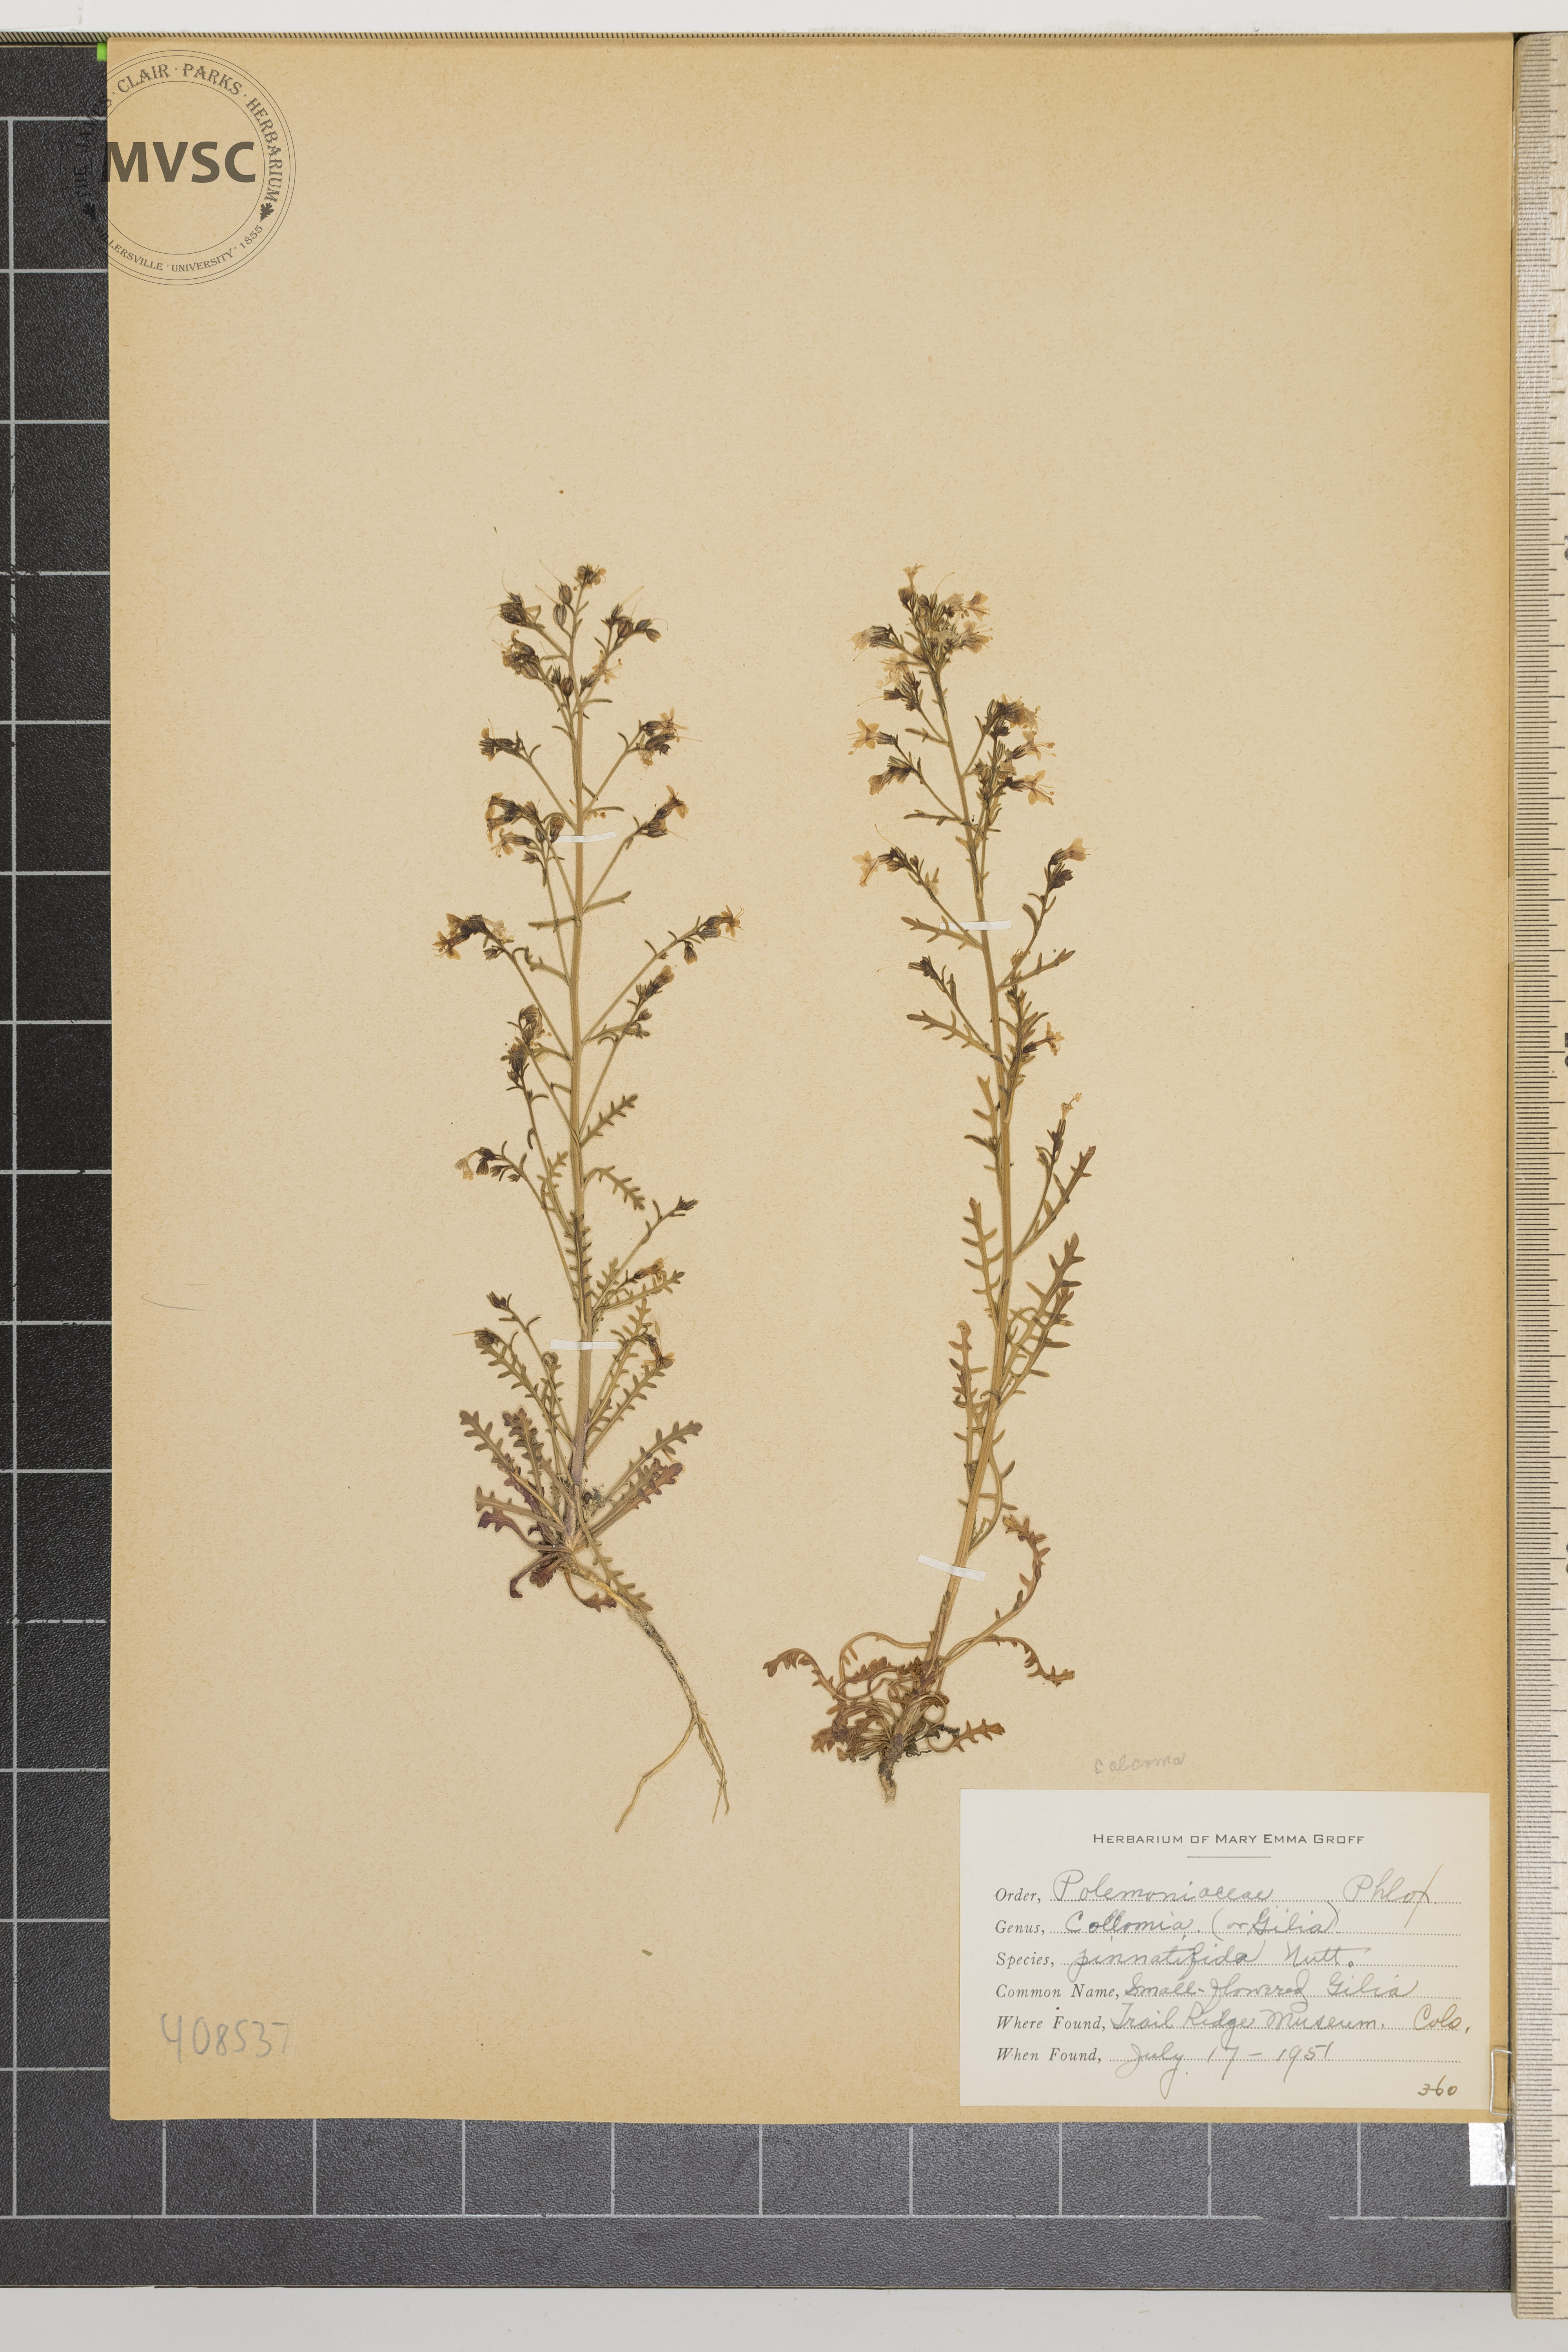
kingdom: Plantae
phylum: Tracheophyta
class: Magnoliopsida
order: Ericales
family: Polemoniaceae
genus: Gilia
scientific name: Gilia pinnatifida
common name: Small-flowered Gilia
